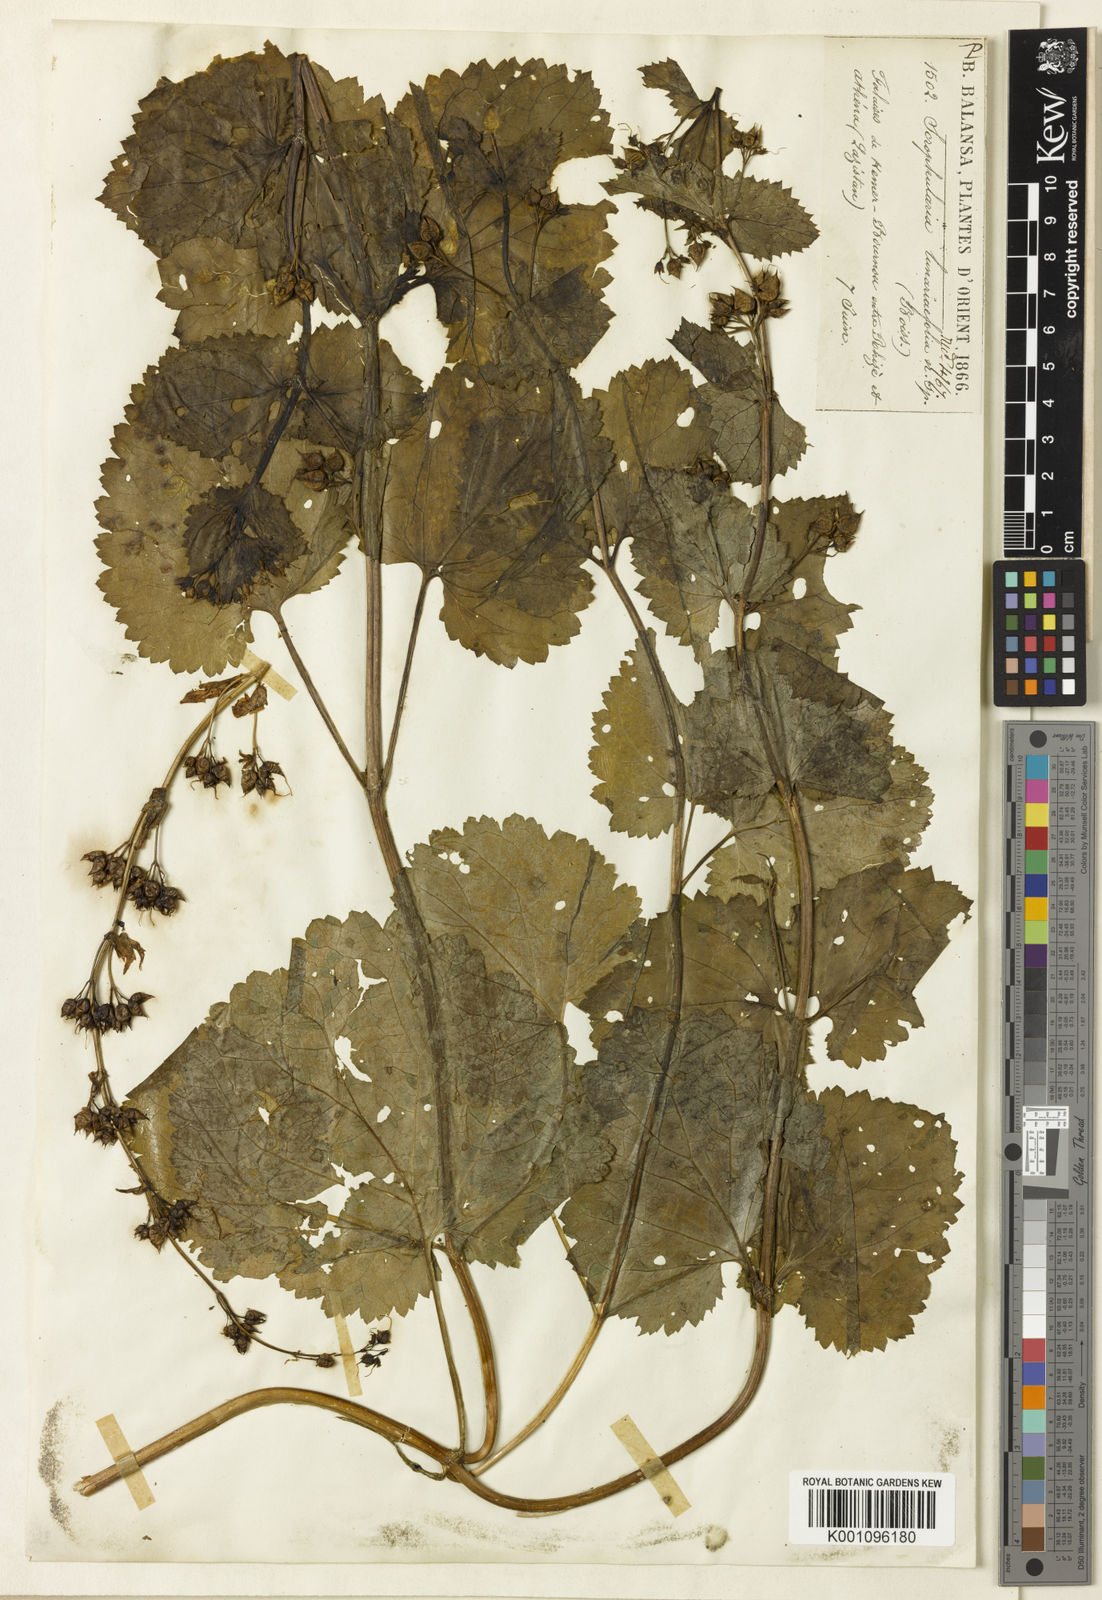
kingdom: Plantae
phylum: Tracheophyta
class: Magnoliopsida
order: Lamiales
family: Scrophulariaceae
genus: Scrophularia
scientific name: Scrophularia chrysantha
